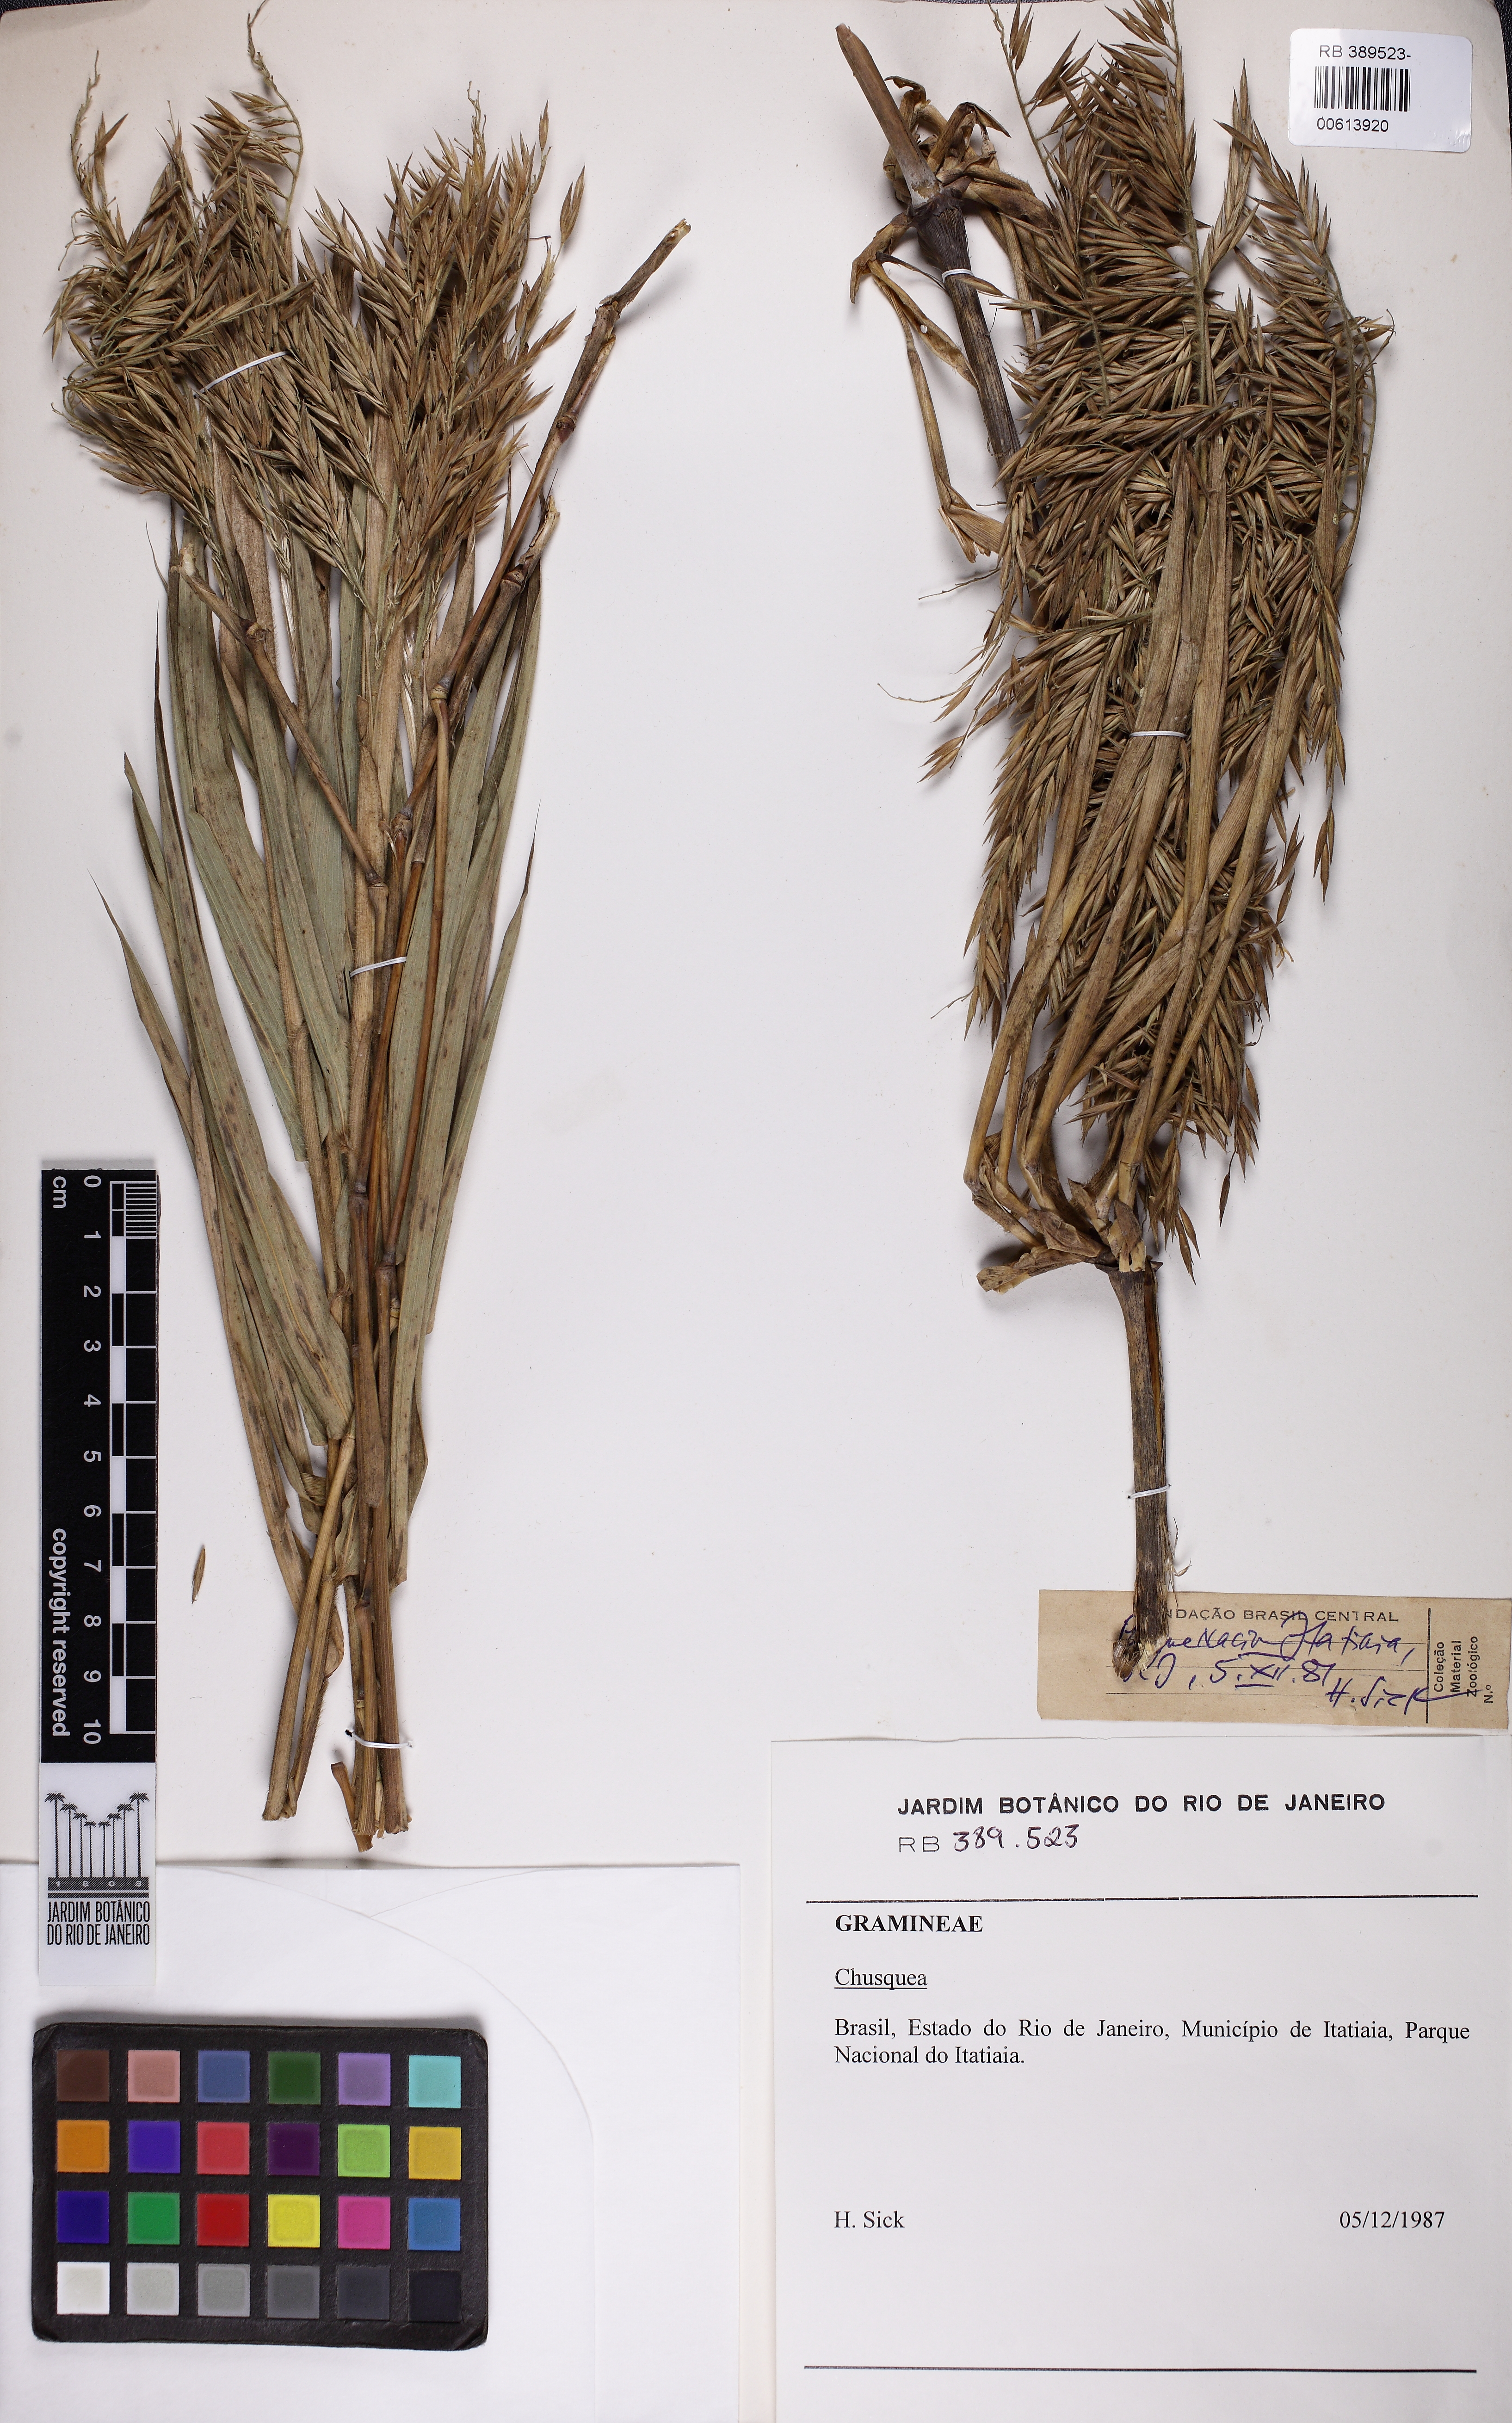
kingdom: Plantae
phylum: Tracheophyta
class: Liliopsida
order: Poales
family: Poaceae
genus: Chusquea
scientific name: Chusquea anelythra
